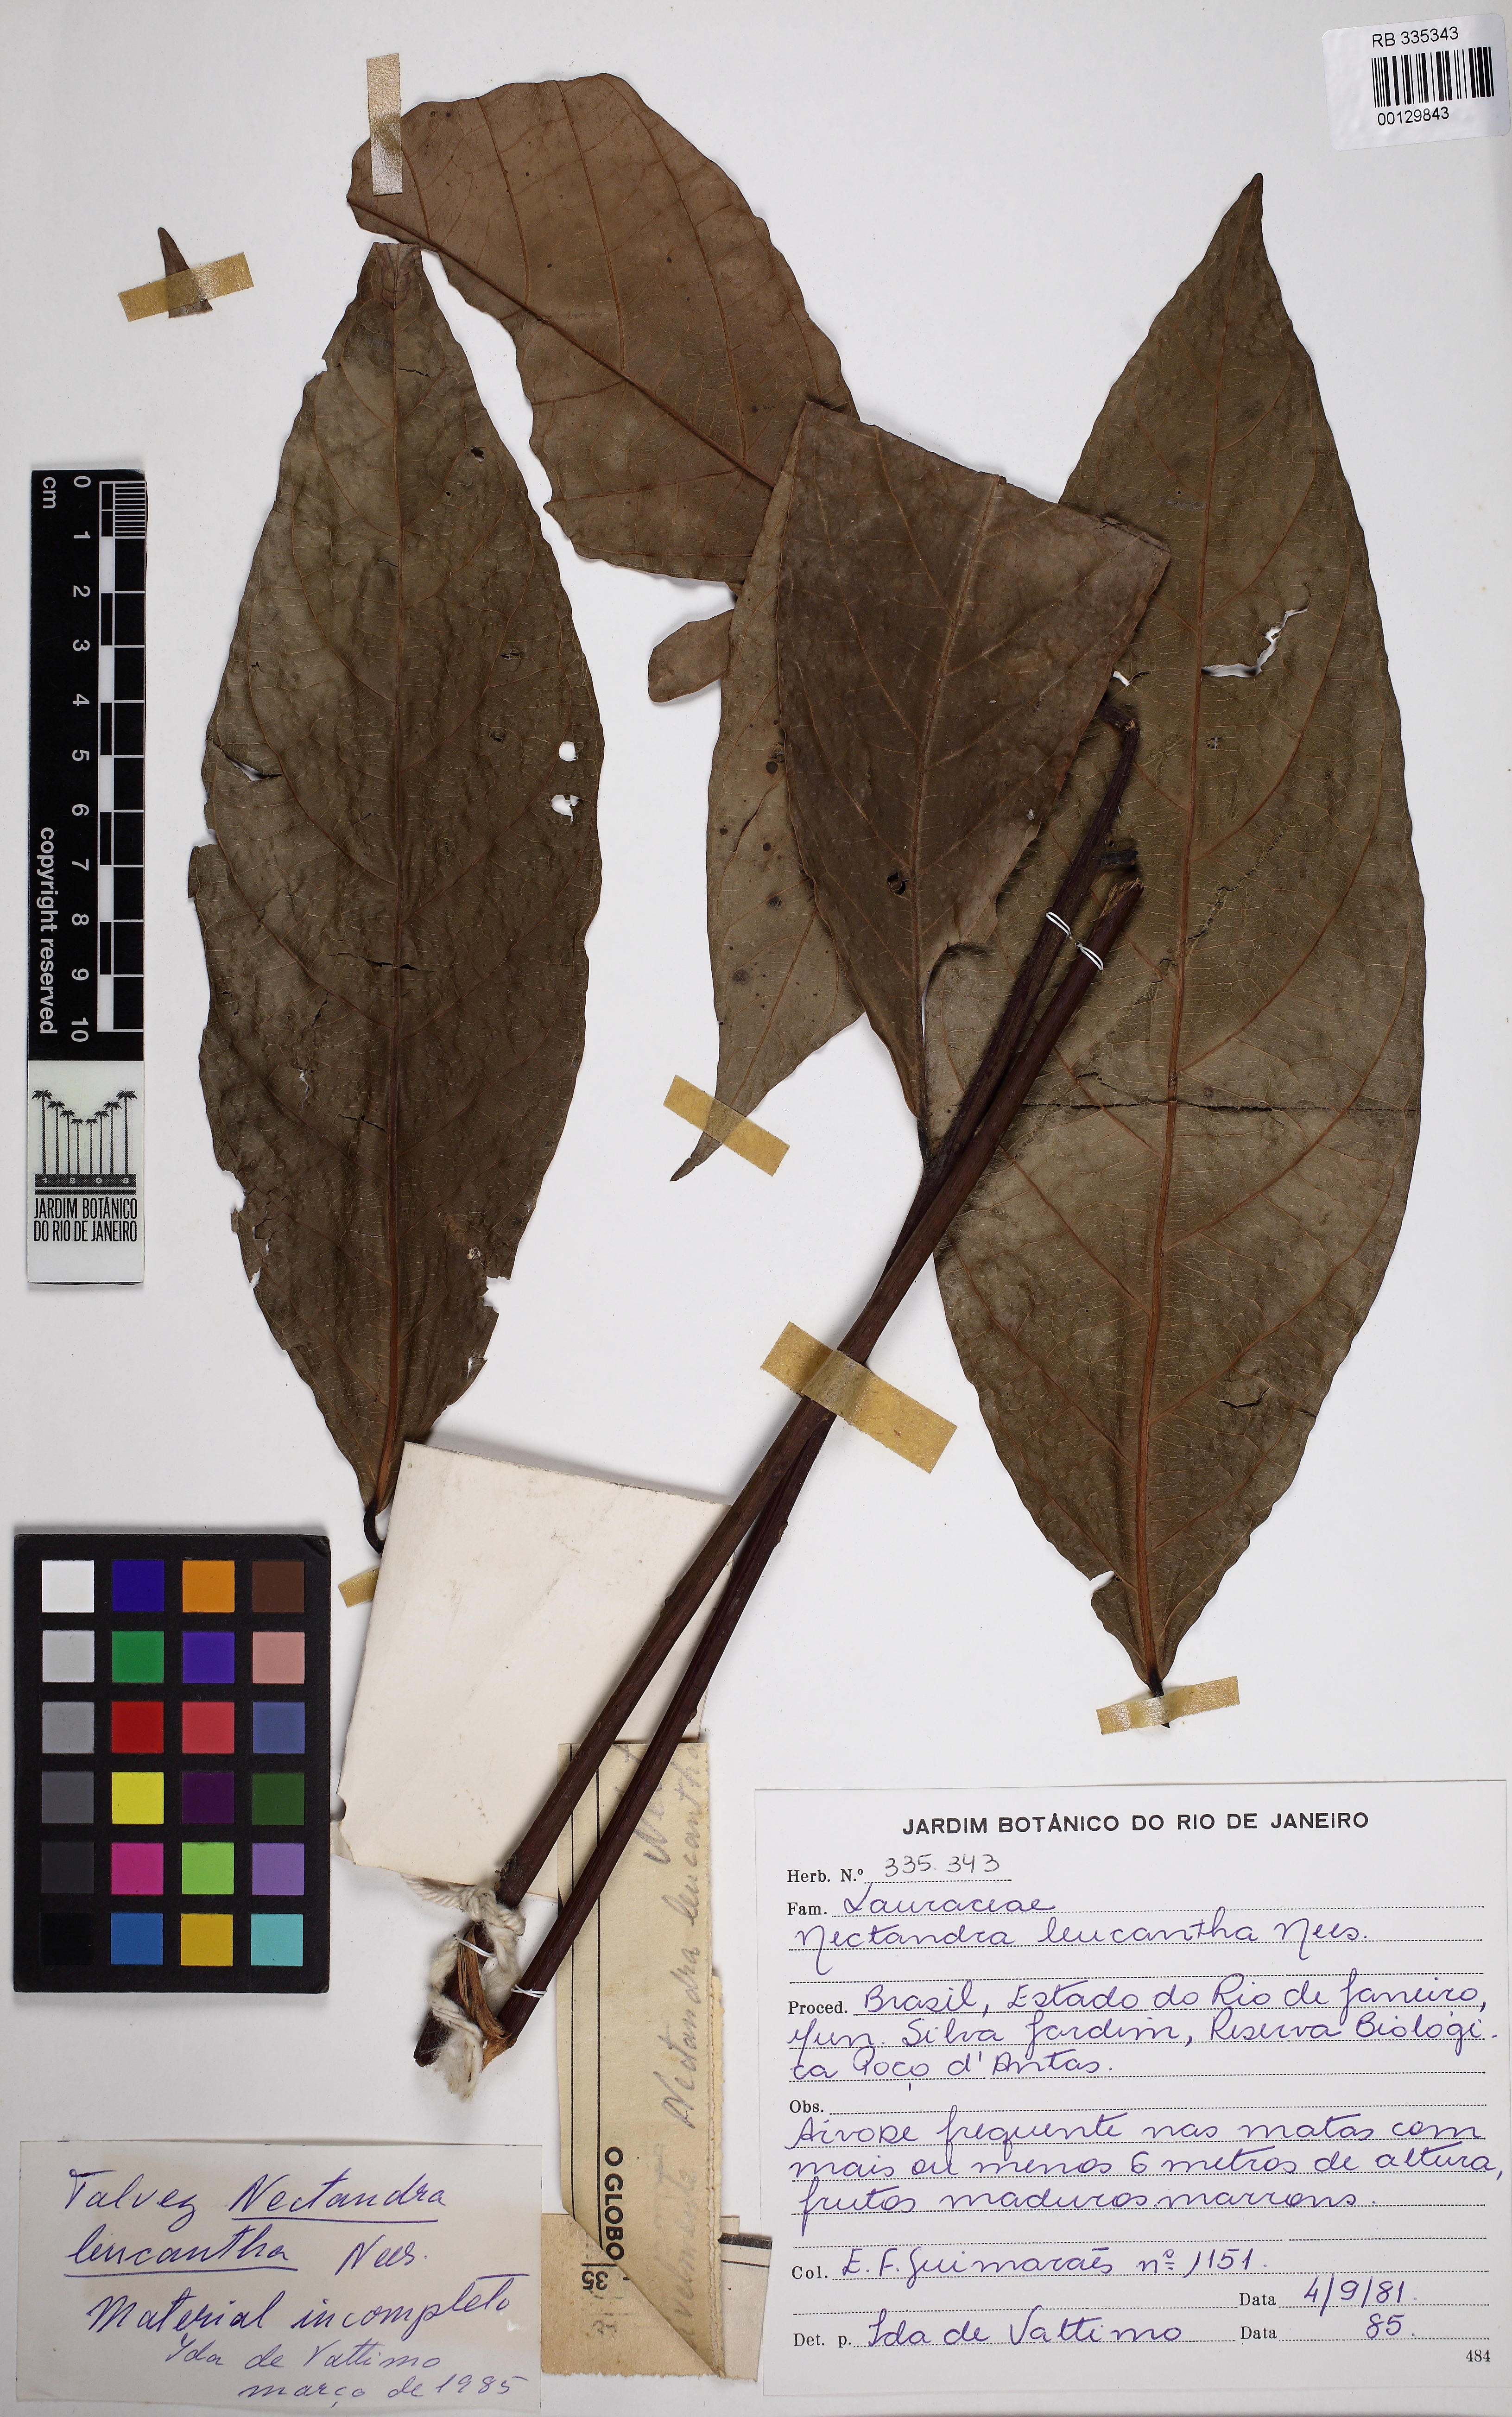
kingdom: Plantae
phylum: Tracheophyta
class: Magnoliopsida
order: Laurales
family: Lauraceae
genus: Nectandra
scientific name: Nectandra leucantha
